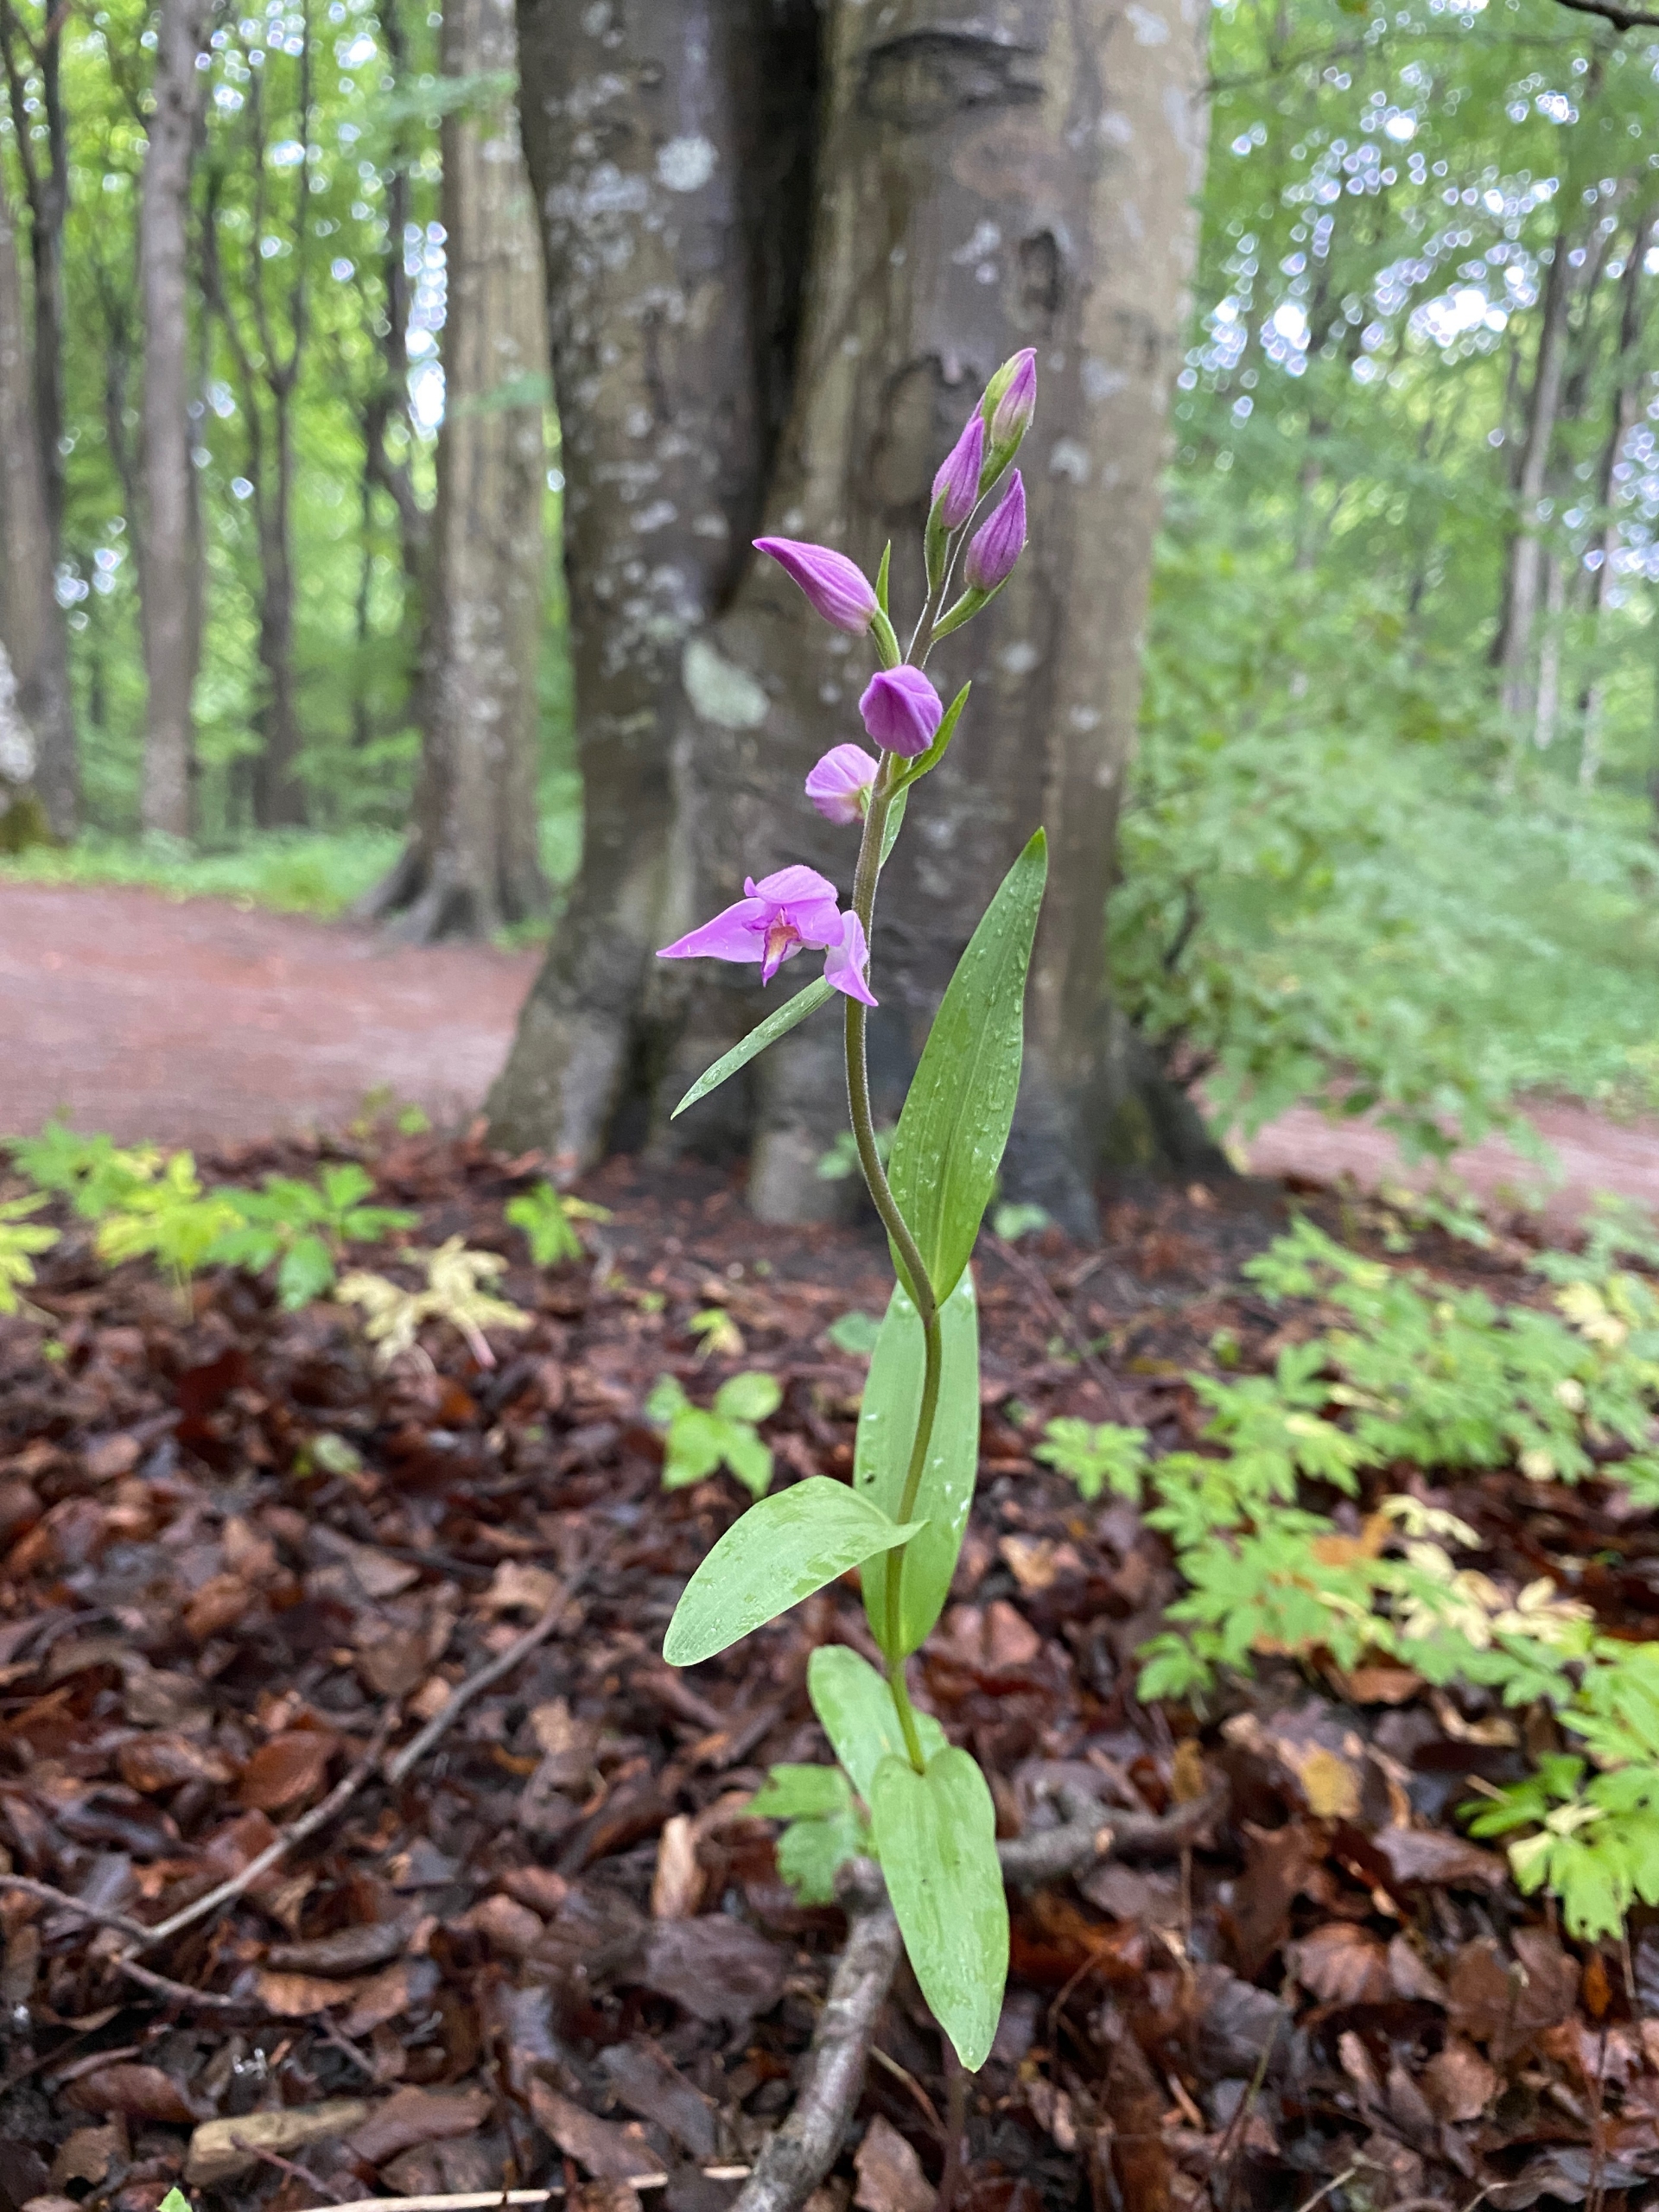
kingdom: Plantae
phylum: Tracheophyta
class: Liliopsida
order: Asparagales
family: Orchidaceae
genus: Cephalanthera
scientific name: Cephalanthera rubra
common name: Rød skovlilje
